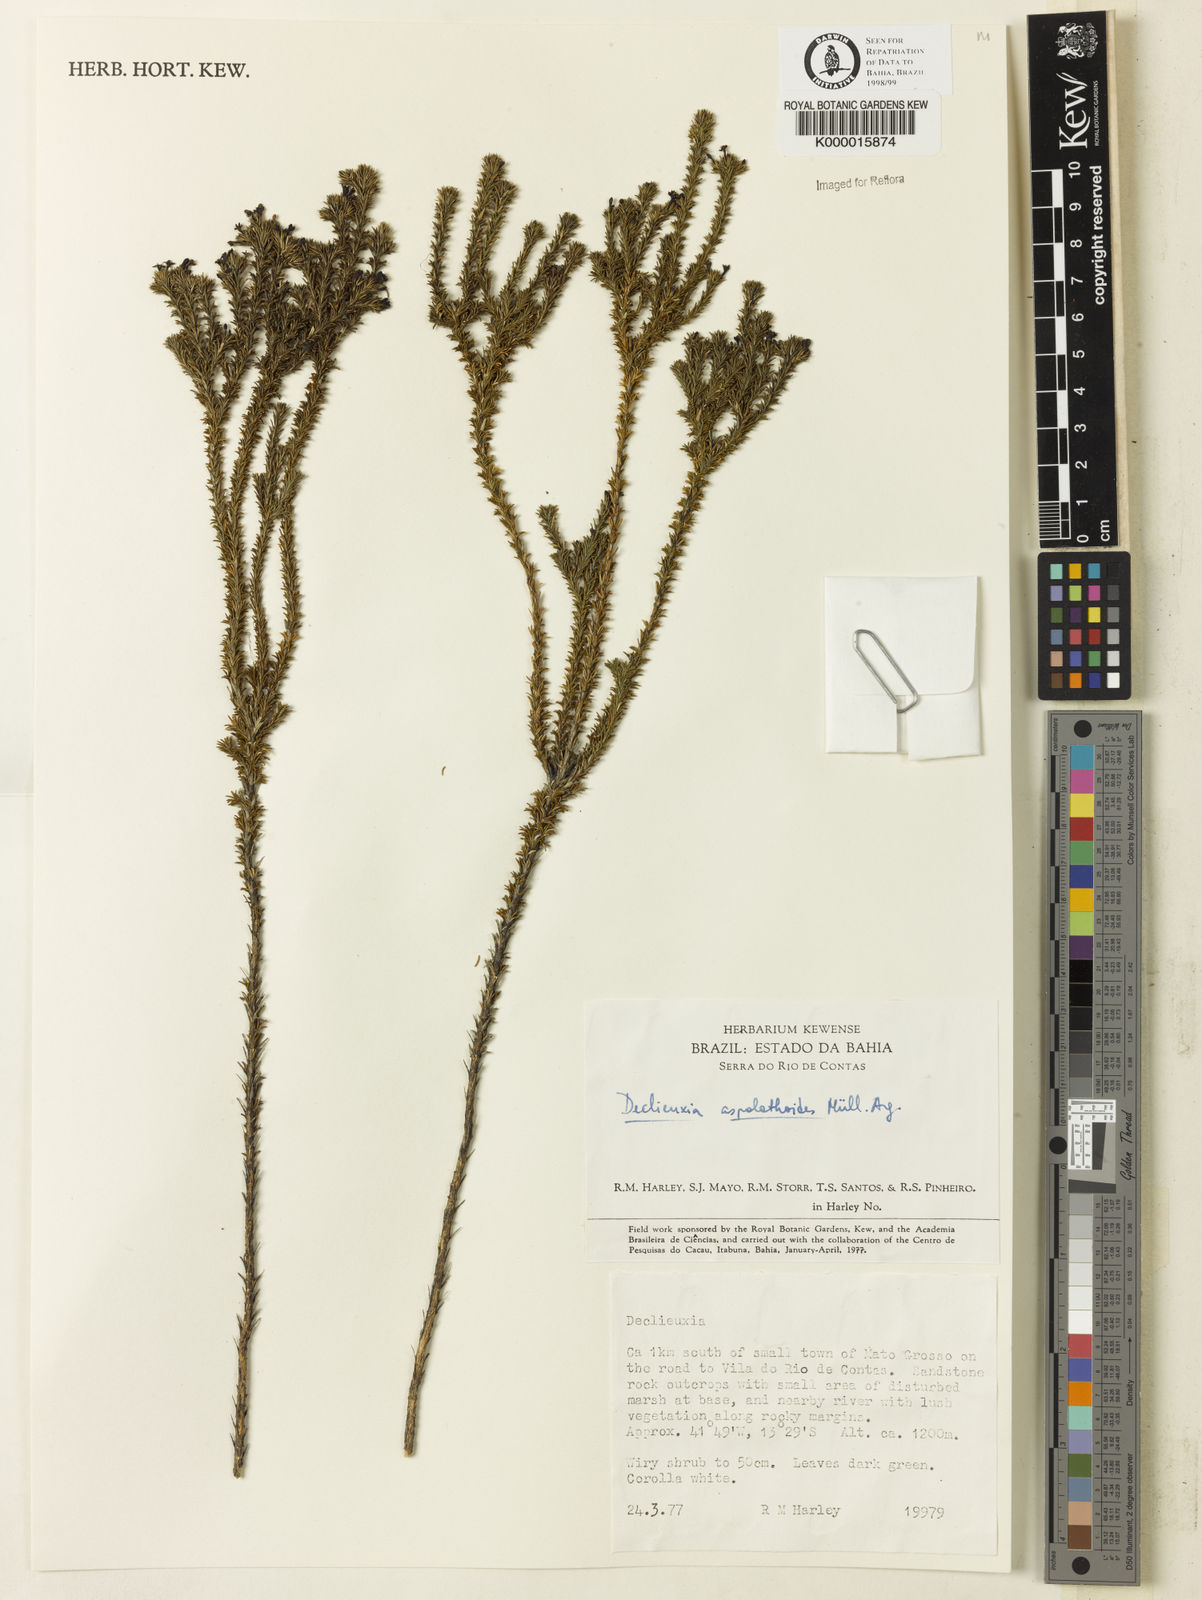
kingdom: Plantae
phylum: Tracheophyta
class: Magnoliopsida
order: Gentianales
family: Rubiaceae
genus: Declieuxia
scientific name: Declieuxia aspalathoides
